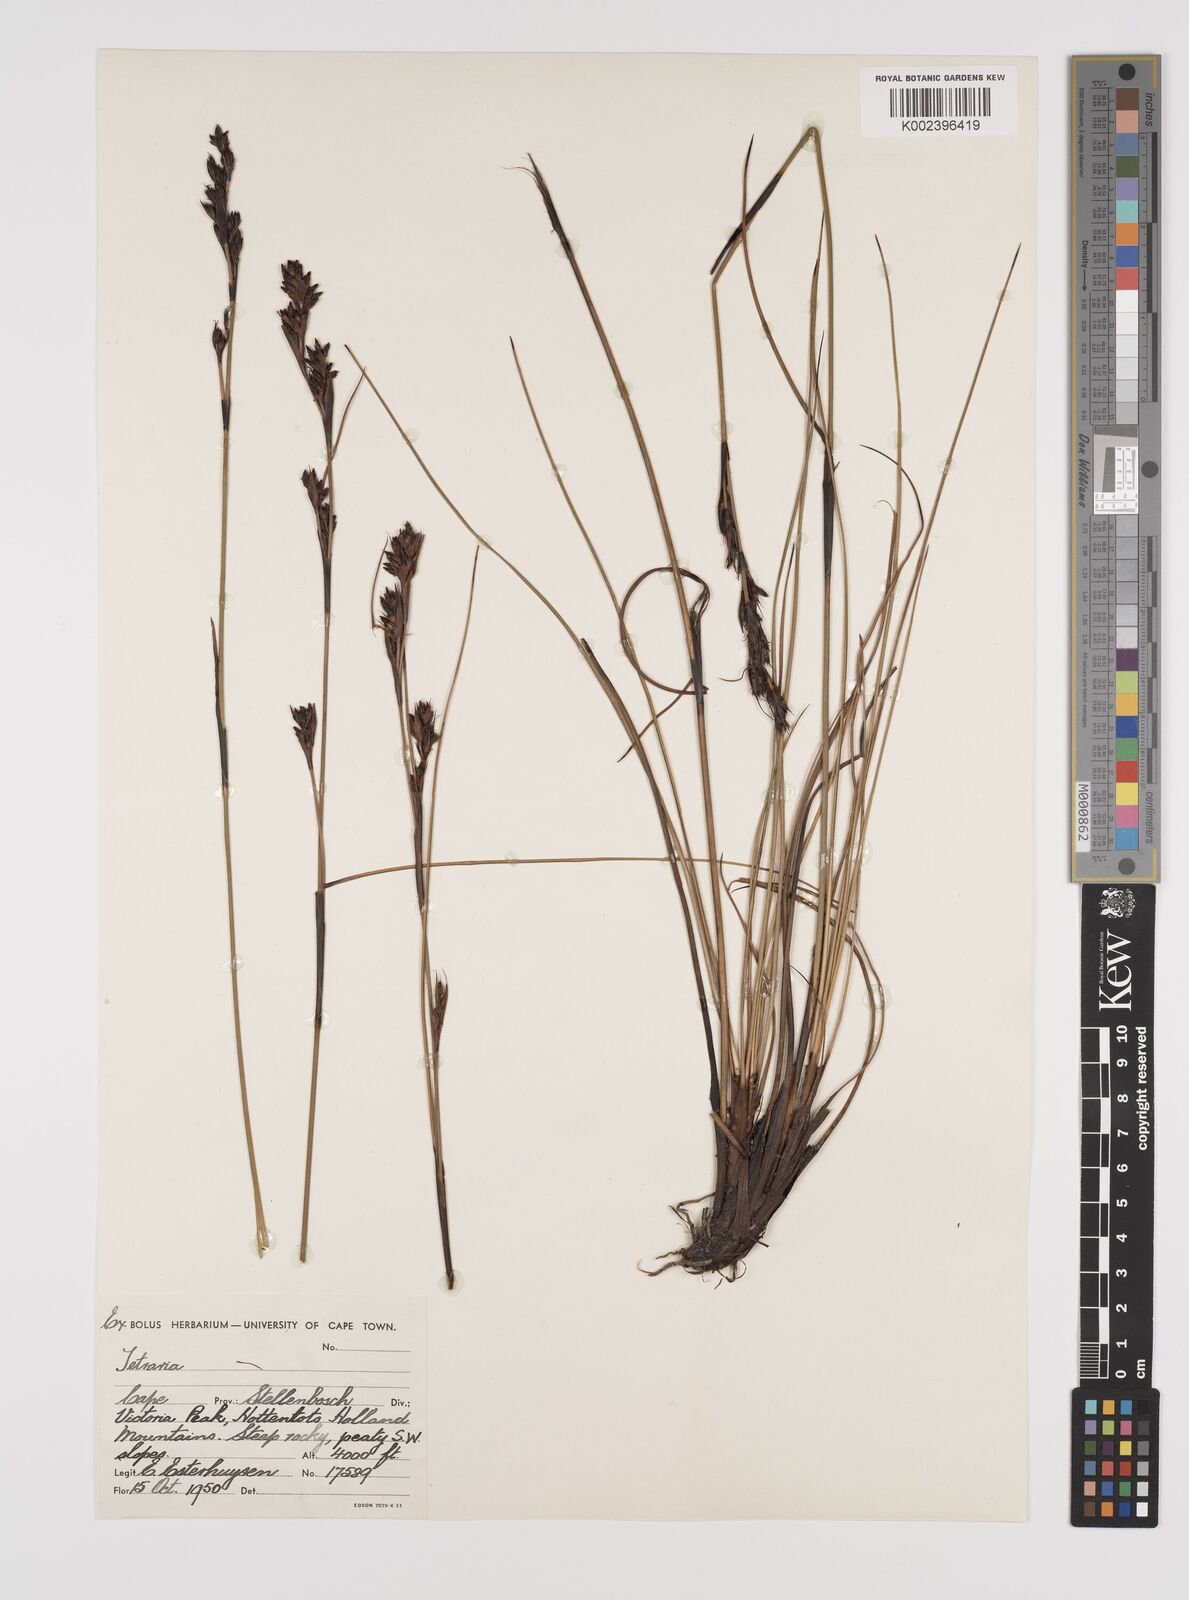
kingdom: Plantae
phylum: Tracheophyta
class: Liliopsida
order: Poales
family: Cyperaceae
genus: Tetraria
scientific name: Tetraria
